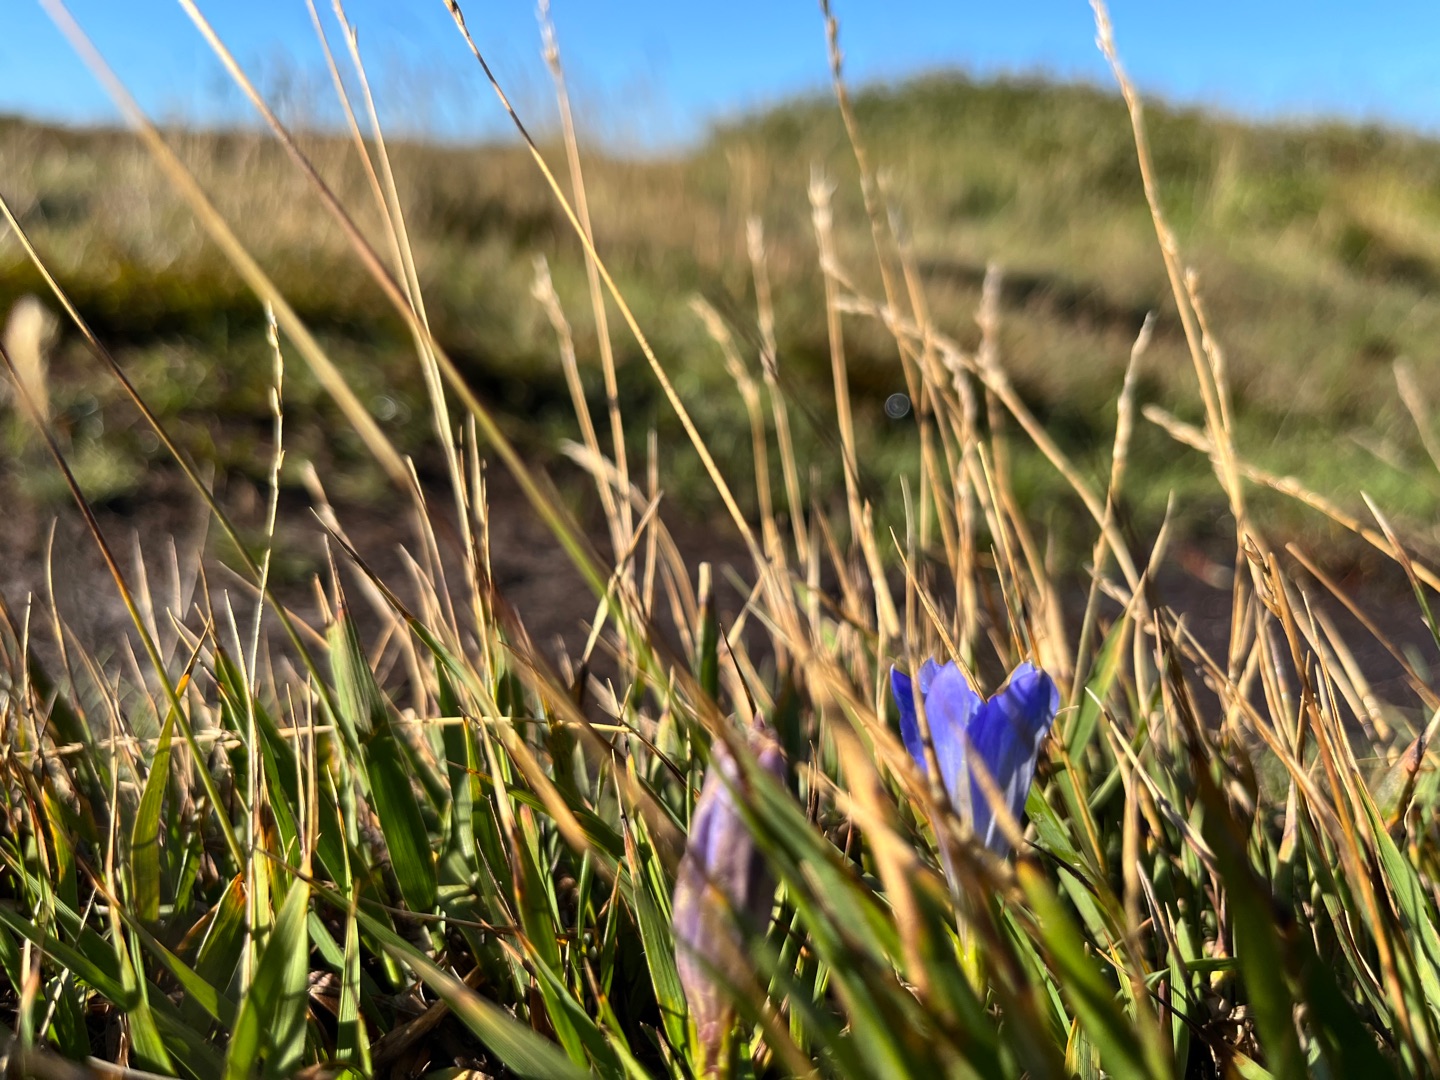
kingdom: Plantae
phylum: Tracheophyta
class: Magnoliopsida
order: Gentianales
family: Gentianaceae
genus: Gentiana
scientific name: Gentiana pneumonanthe
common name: Klokke-ensian
